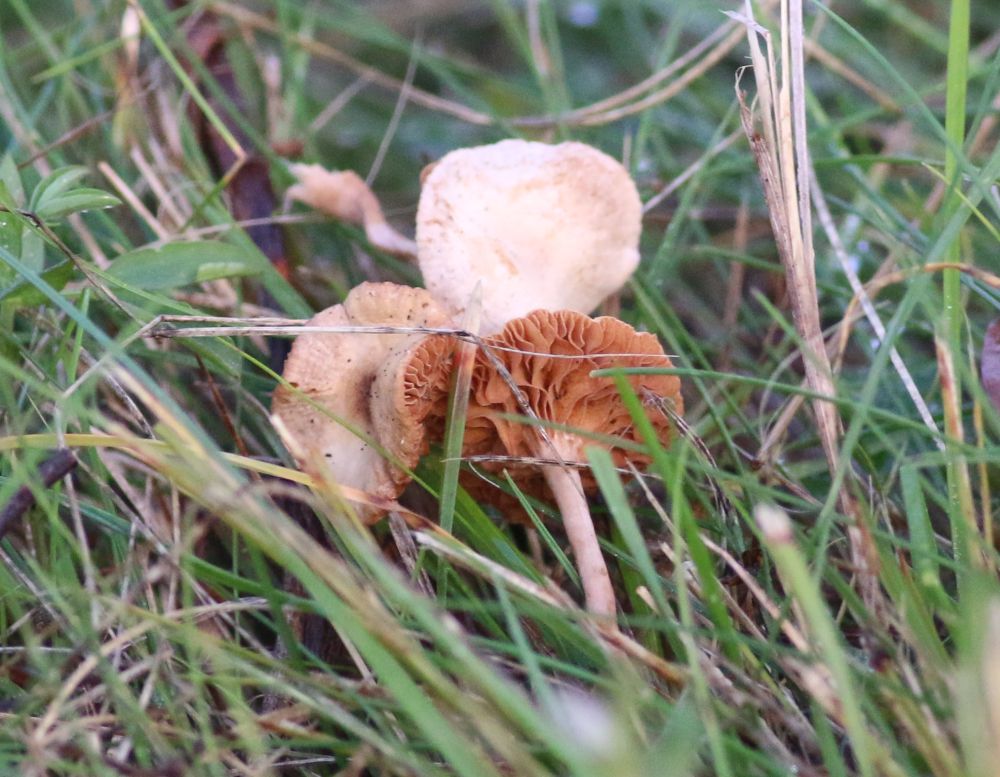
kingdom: Fungi
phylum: Basidiomycota
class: Agaricomycetes
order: Agaricales
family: Tubariaceae
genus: Tubaria
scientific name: Tubaria
